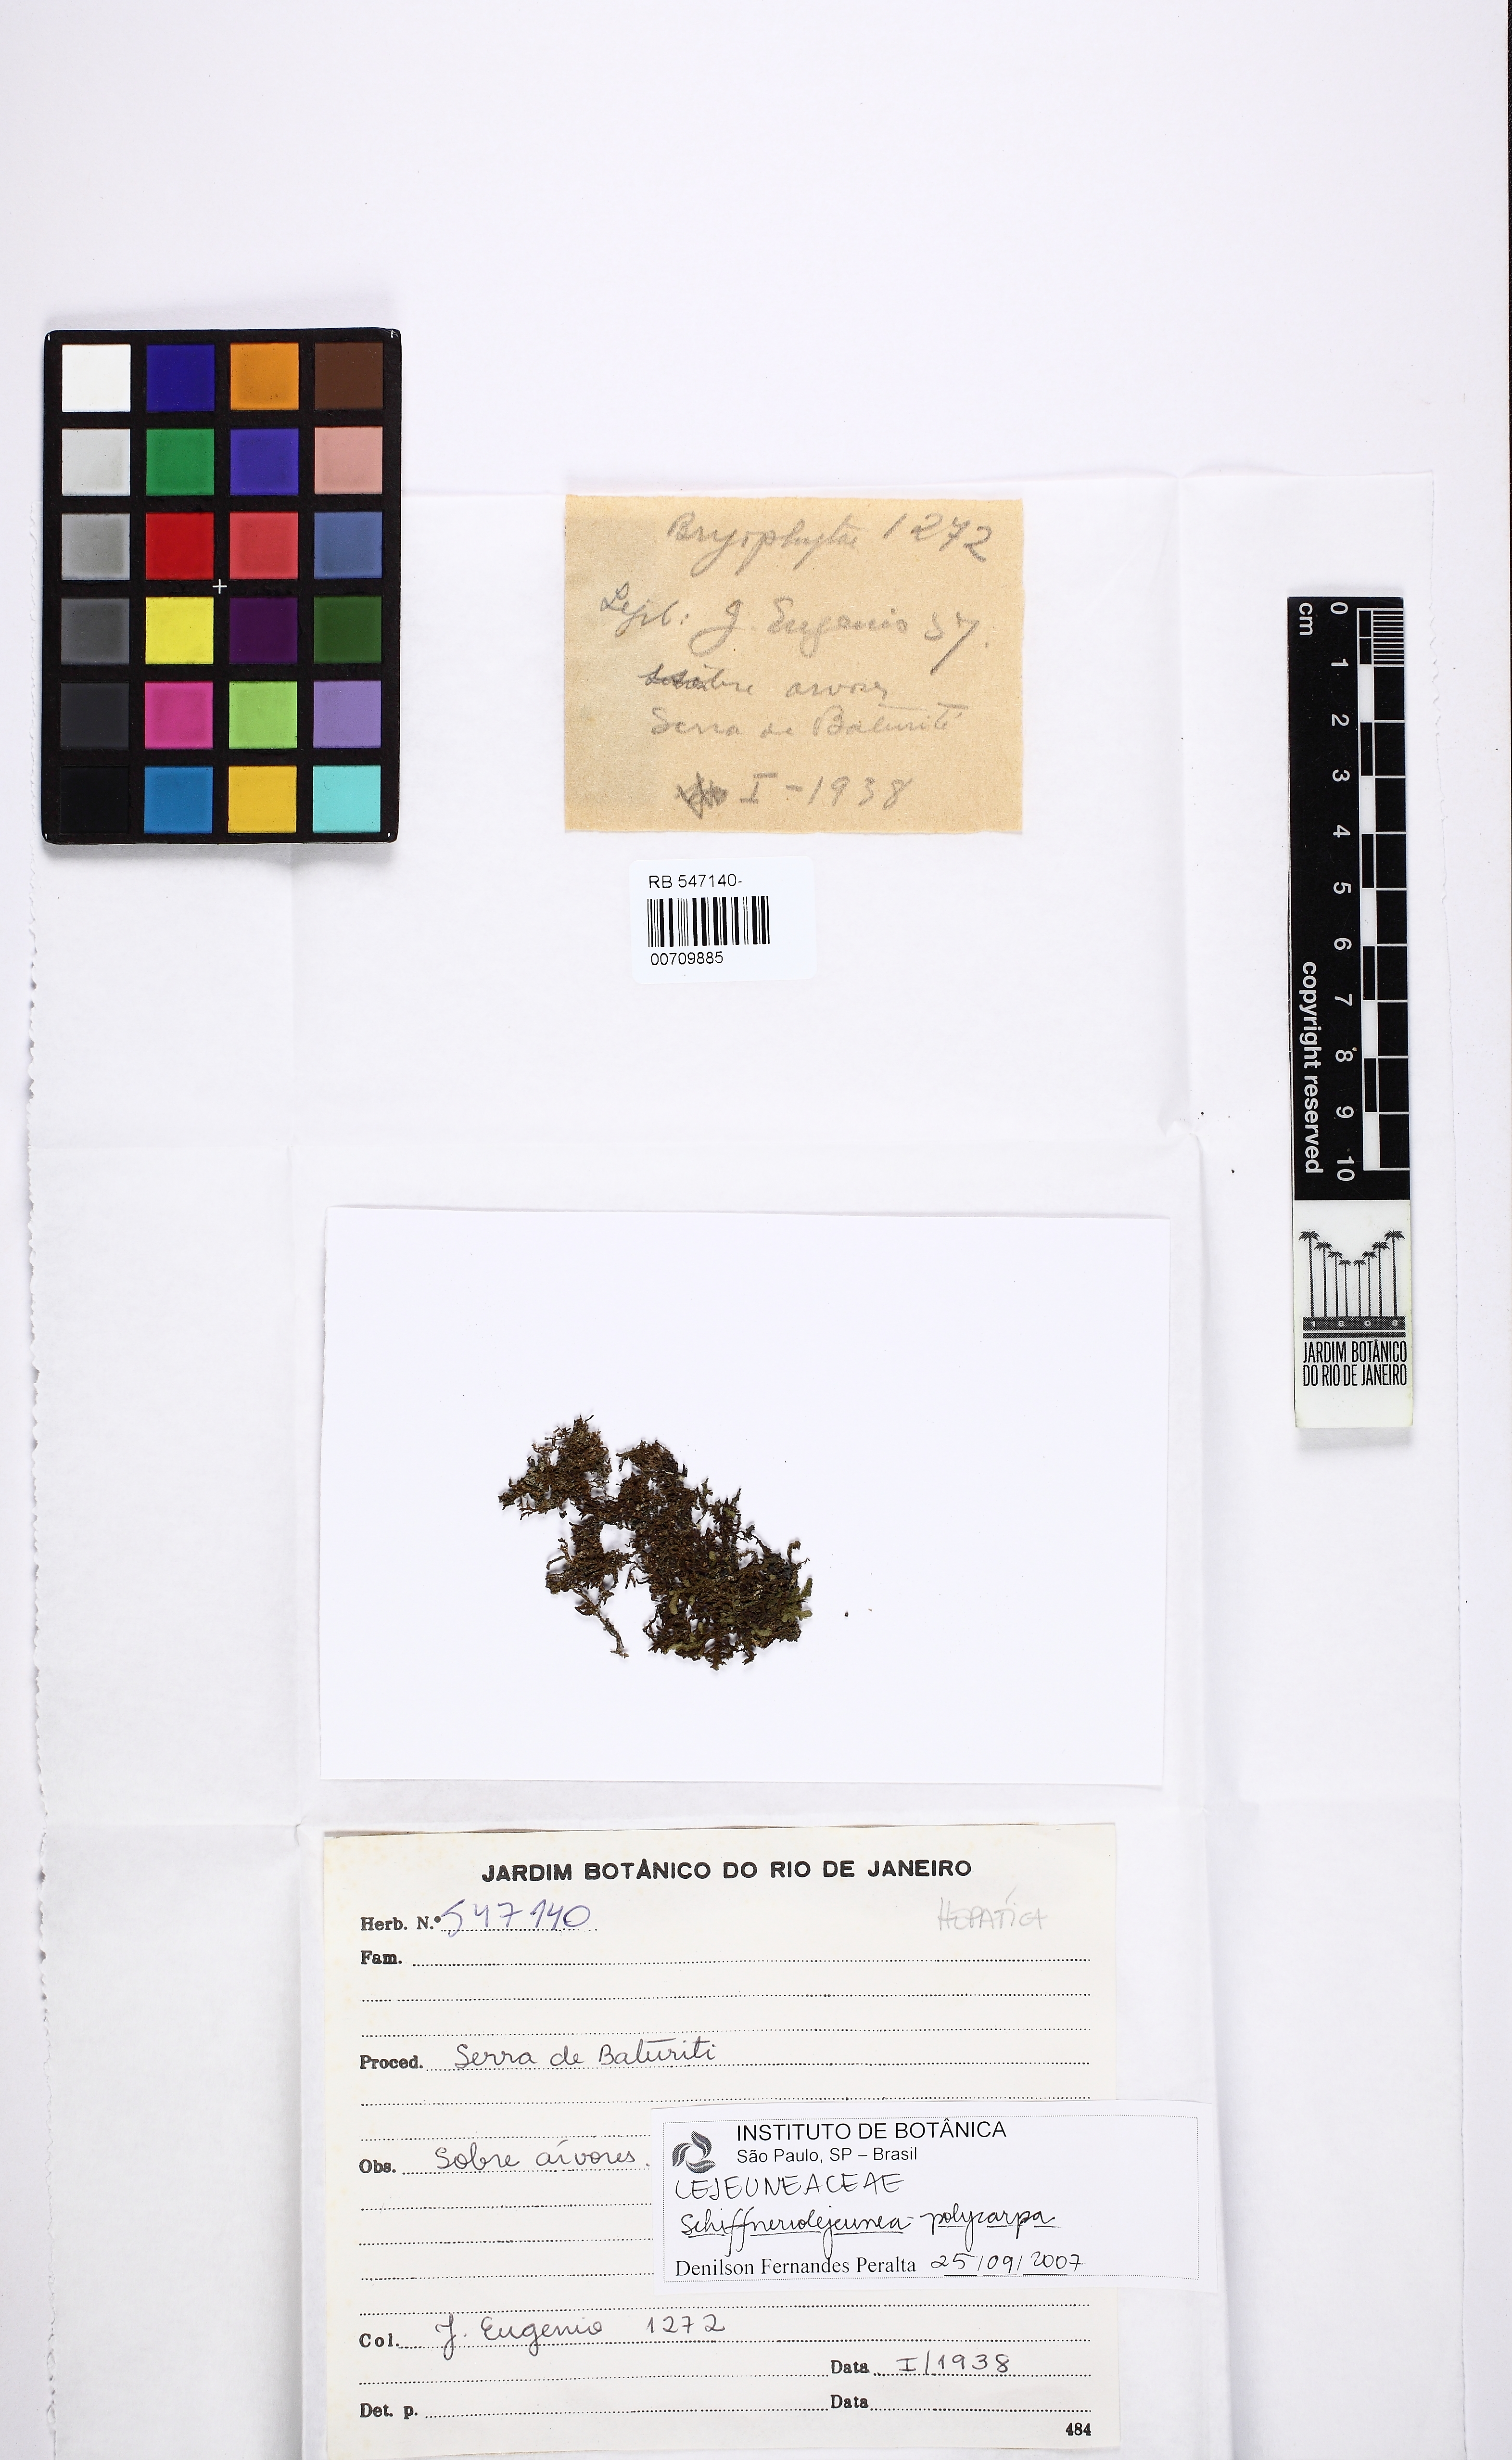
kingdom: Plantae
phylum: Marchantiophyta
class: Jungermanniopsida
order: Porellales
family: Lejeuneaceae
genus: Schiffneriolejeunea
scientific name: Schiffneriolejeunea polycarpa
